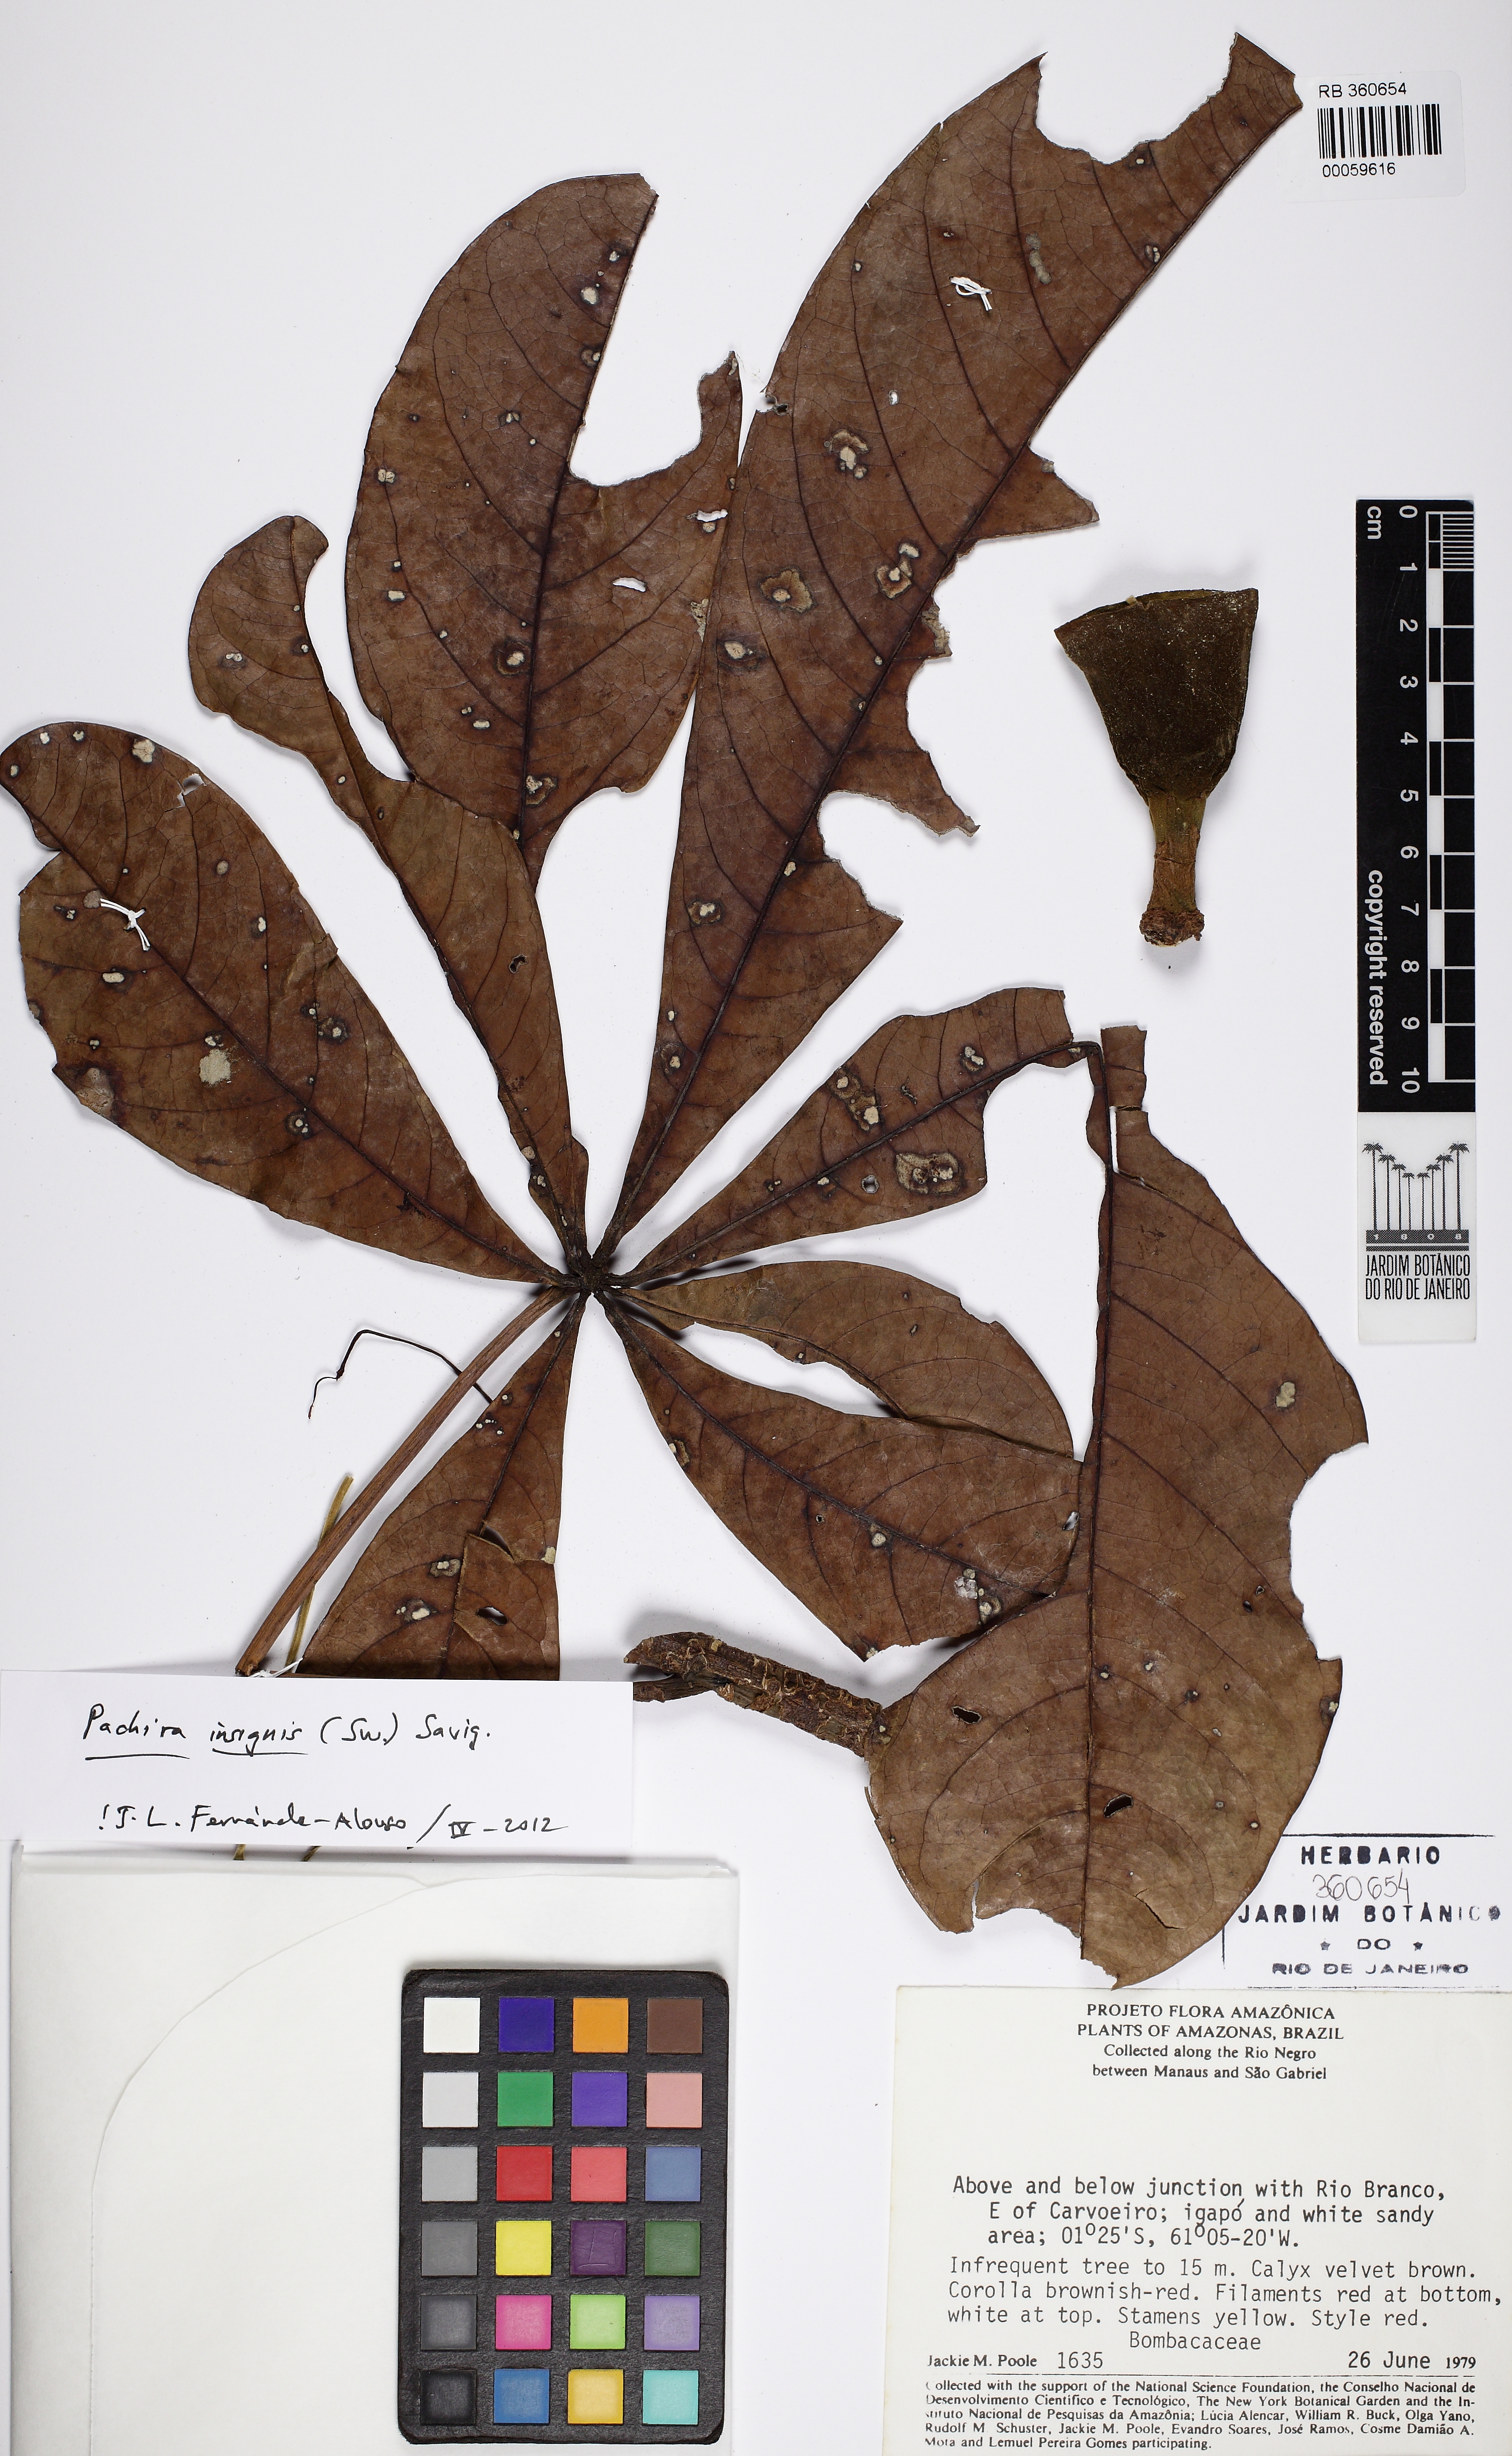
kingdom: Plantae
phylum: Tracheophyta
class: Magnoliopsida
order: Malvales
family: Malvaceae
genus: Pachira
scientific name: Pachira insignis
